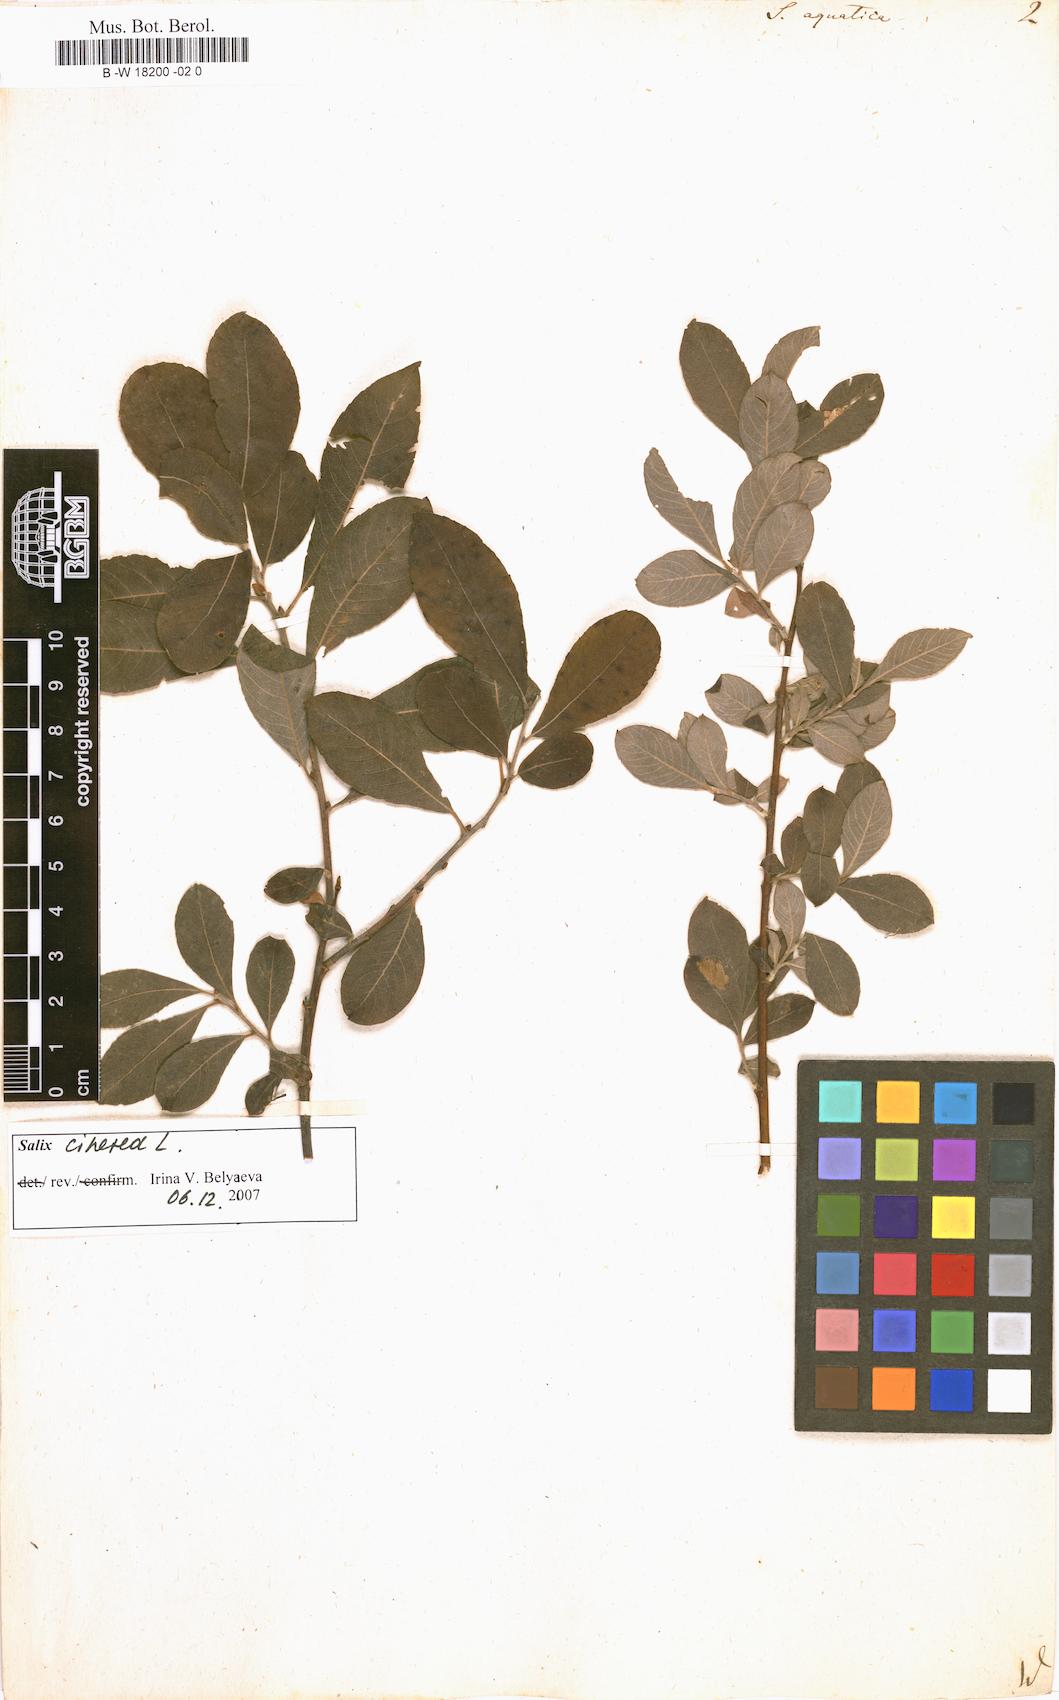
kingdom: Plantae
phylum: Tracheophyta
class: Magnoliopsida
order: Malpighiales
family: Salicaceae
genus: Salix
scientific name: Salix
